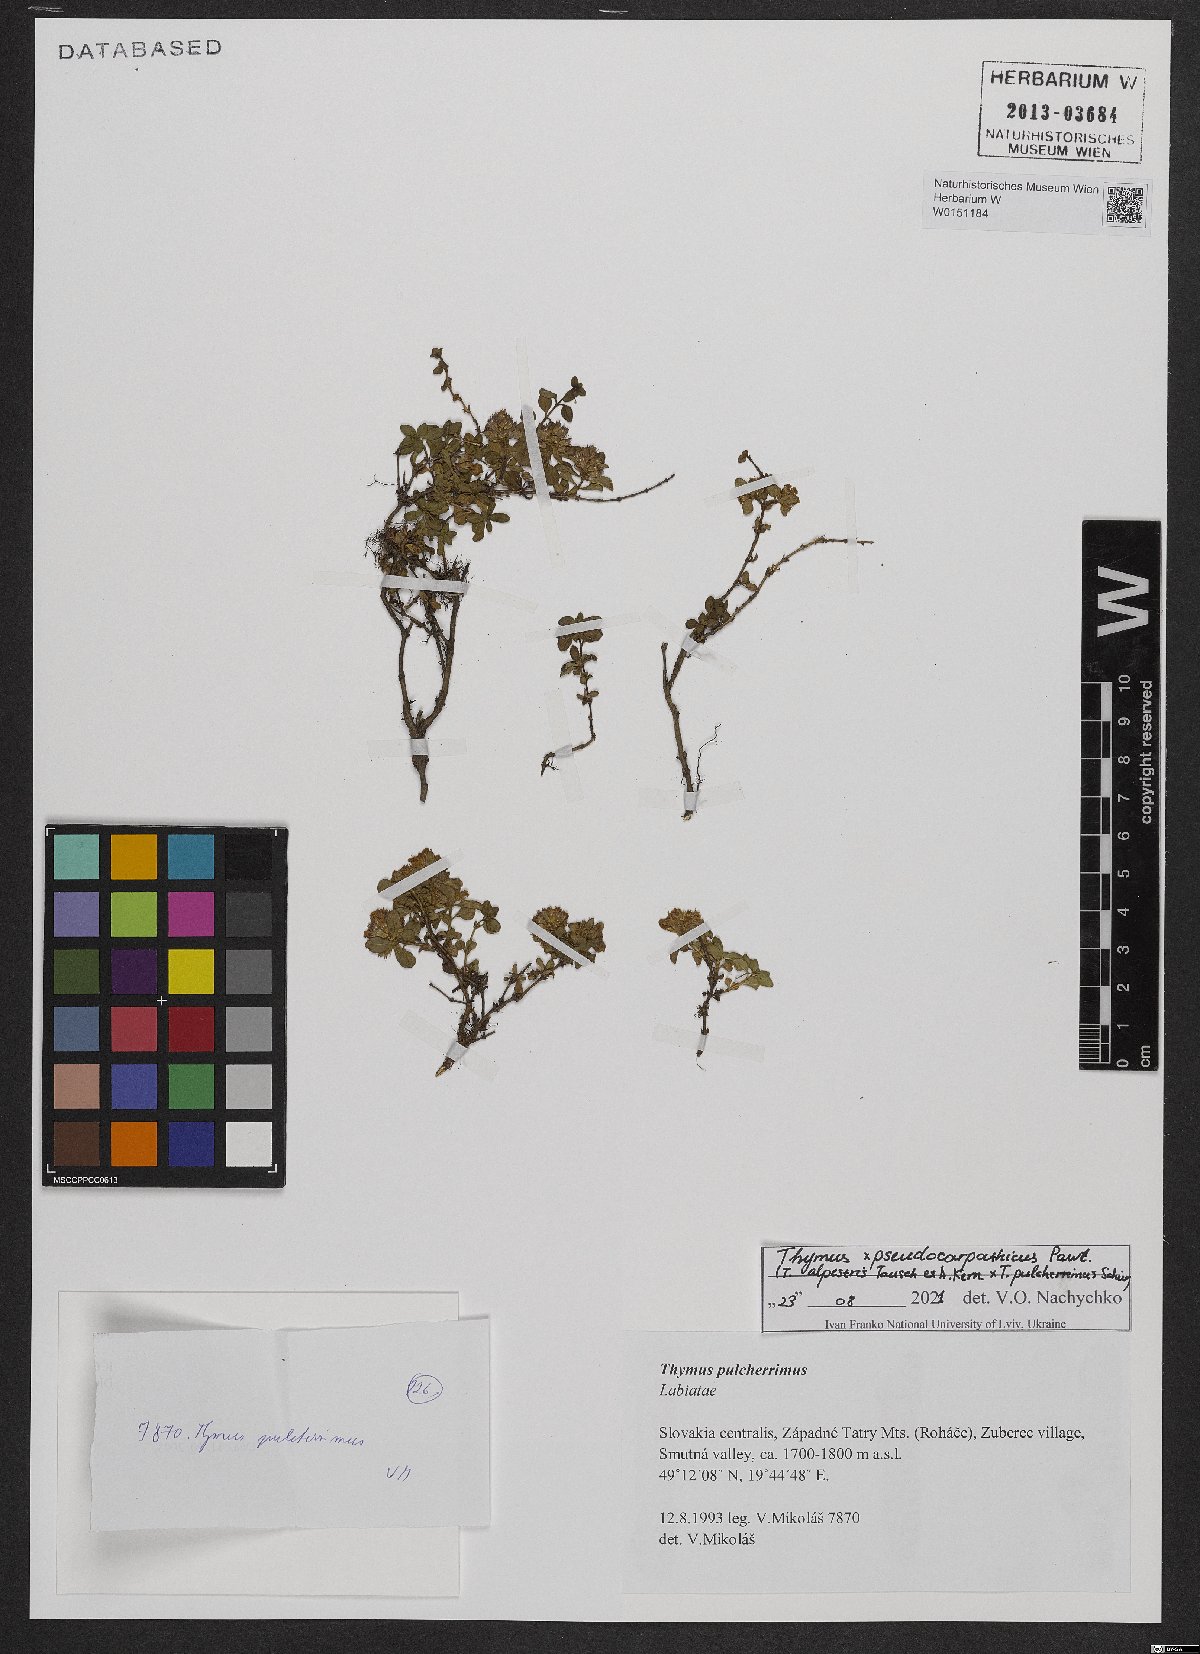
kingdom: Plantae
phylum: Tracheophyta
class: Magnoliopsida
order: Lamiales
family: Lamiaceae
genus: Thymus
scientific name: Thymus pulcherrimus
